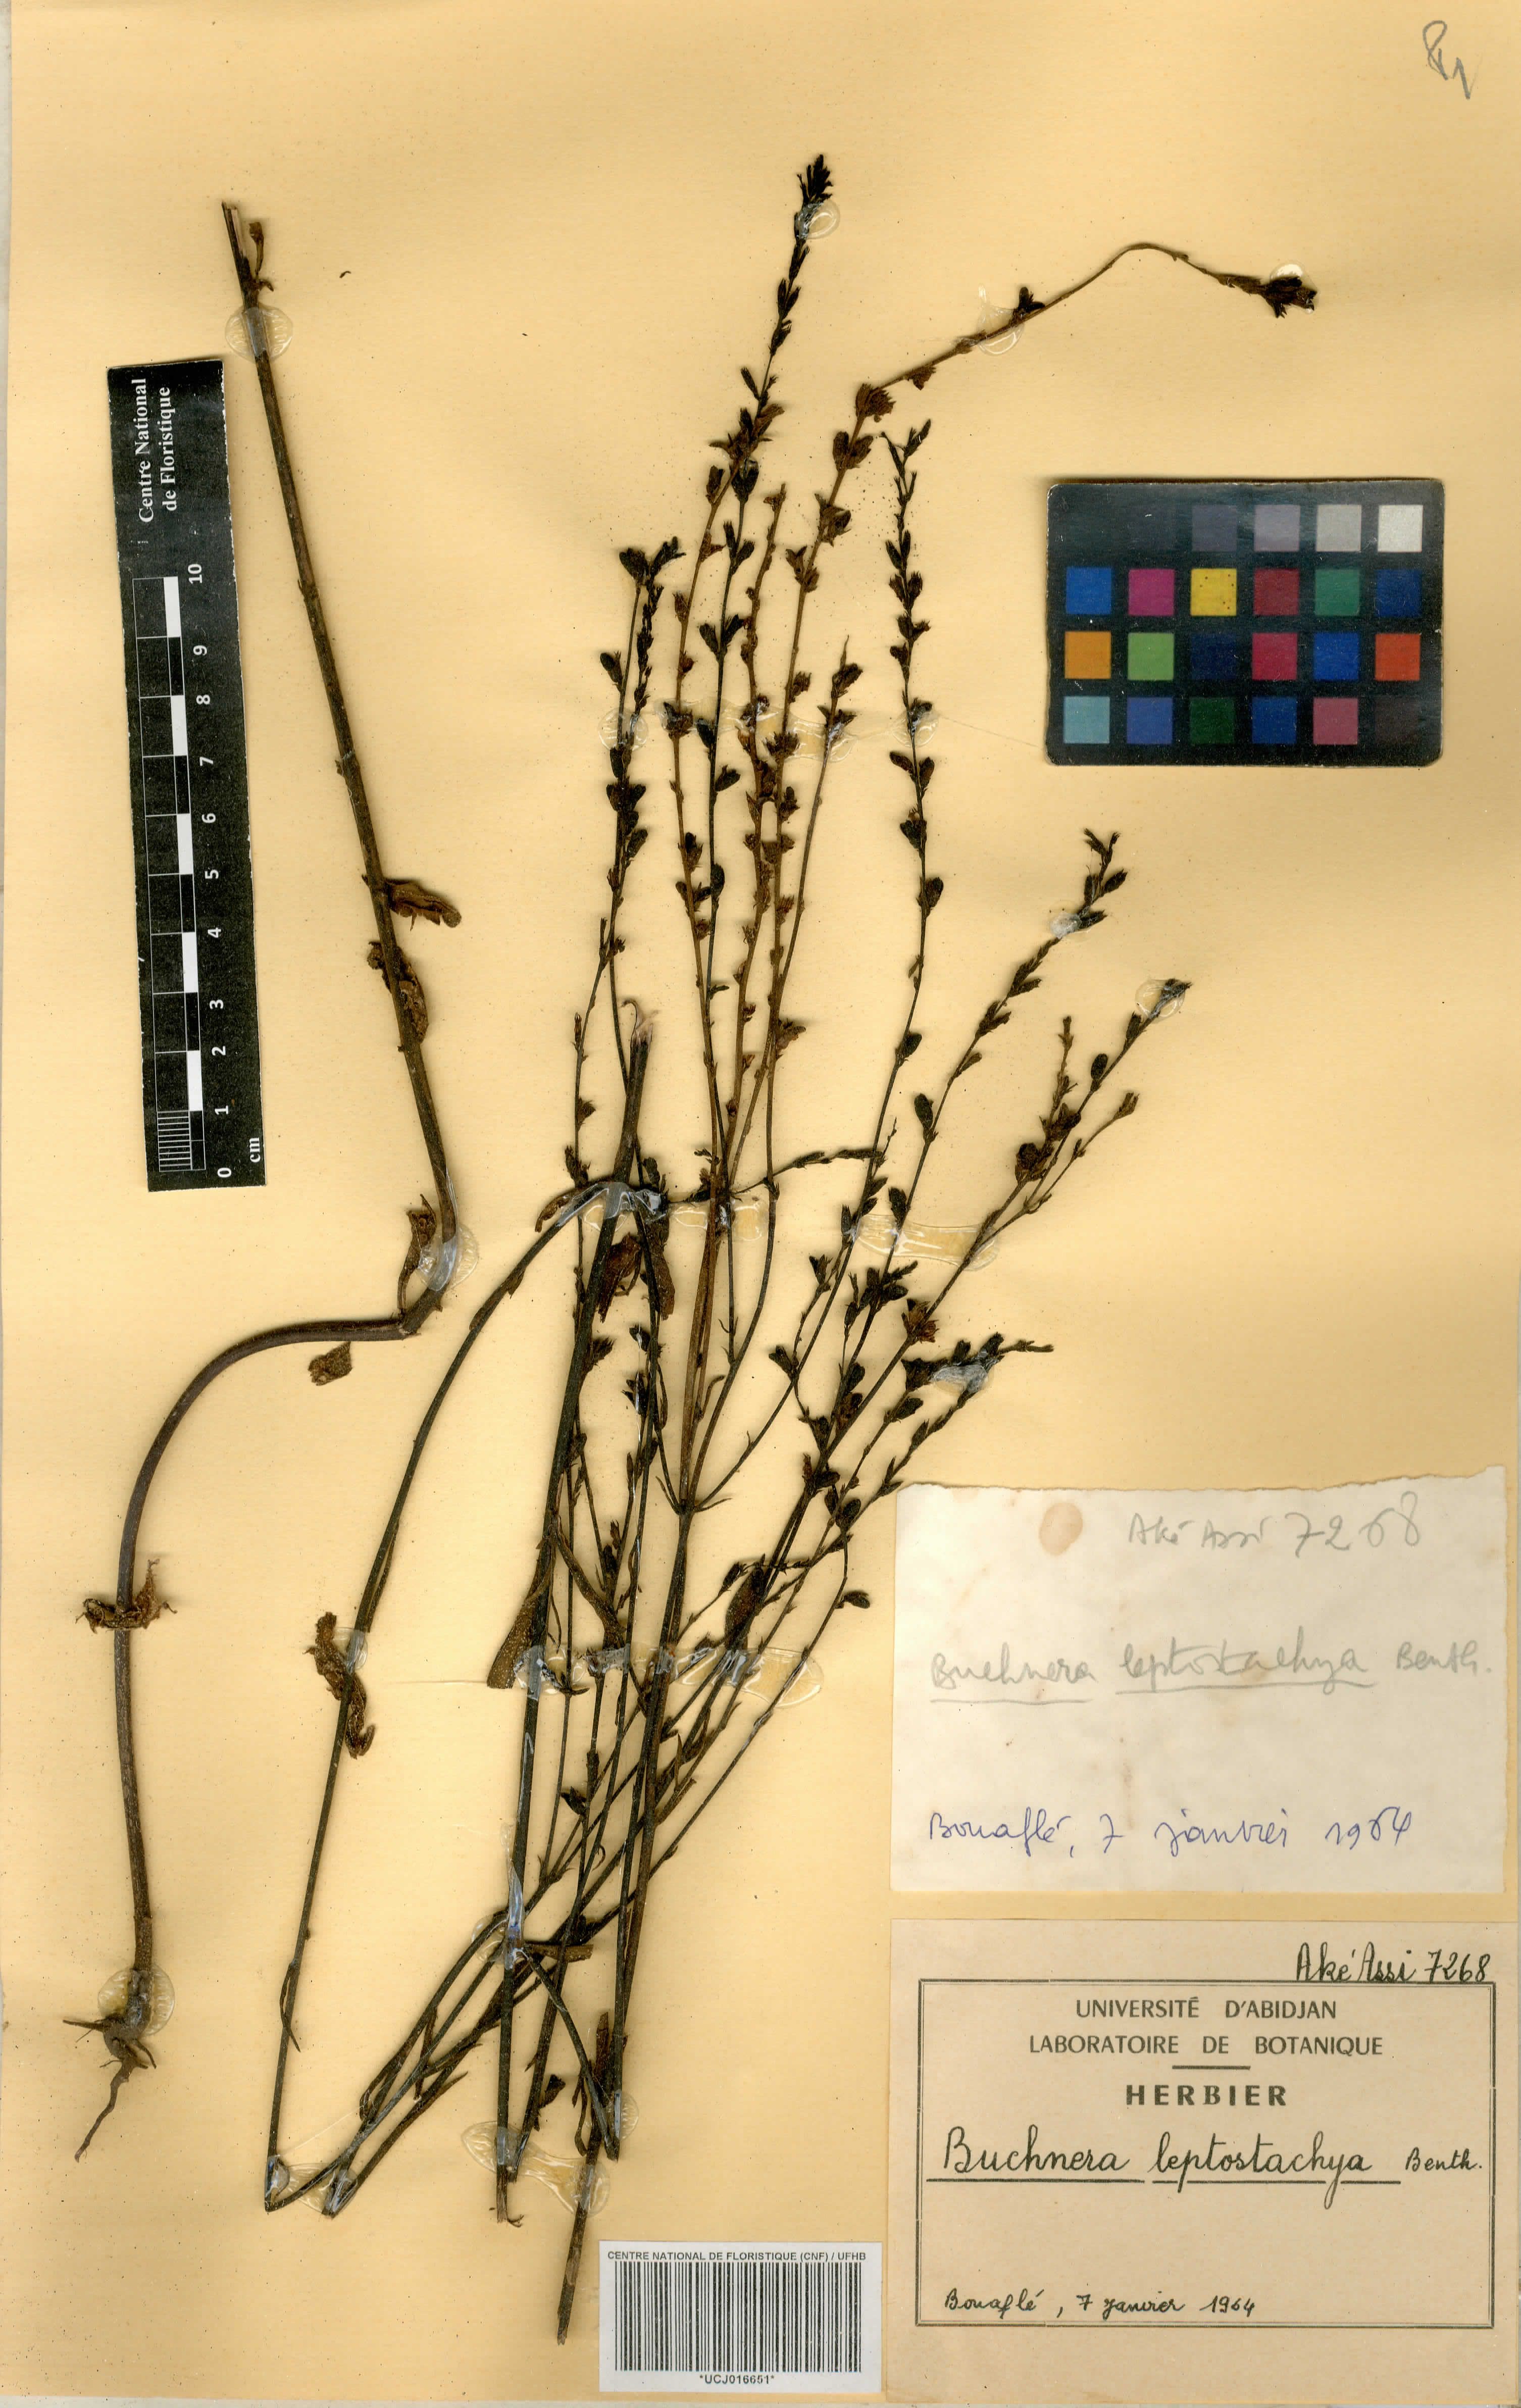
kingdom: Plantae
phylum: Tracheophyta
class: Magnoliopsida
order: Lamiales
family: Orobanchaceae
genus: Buchnera
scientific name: Buchnera leptostachya
